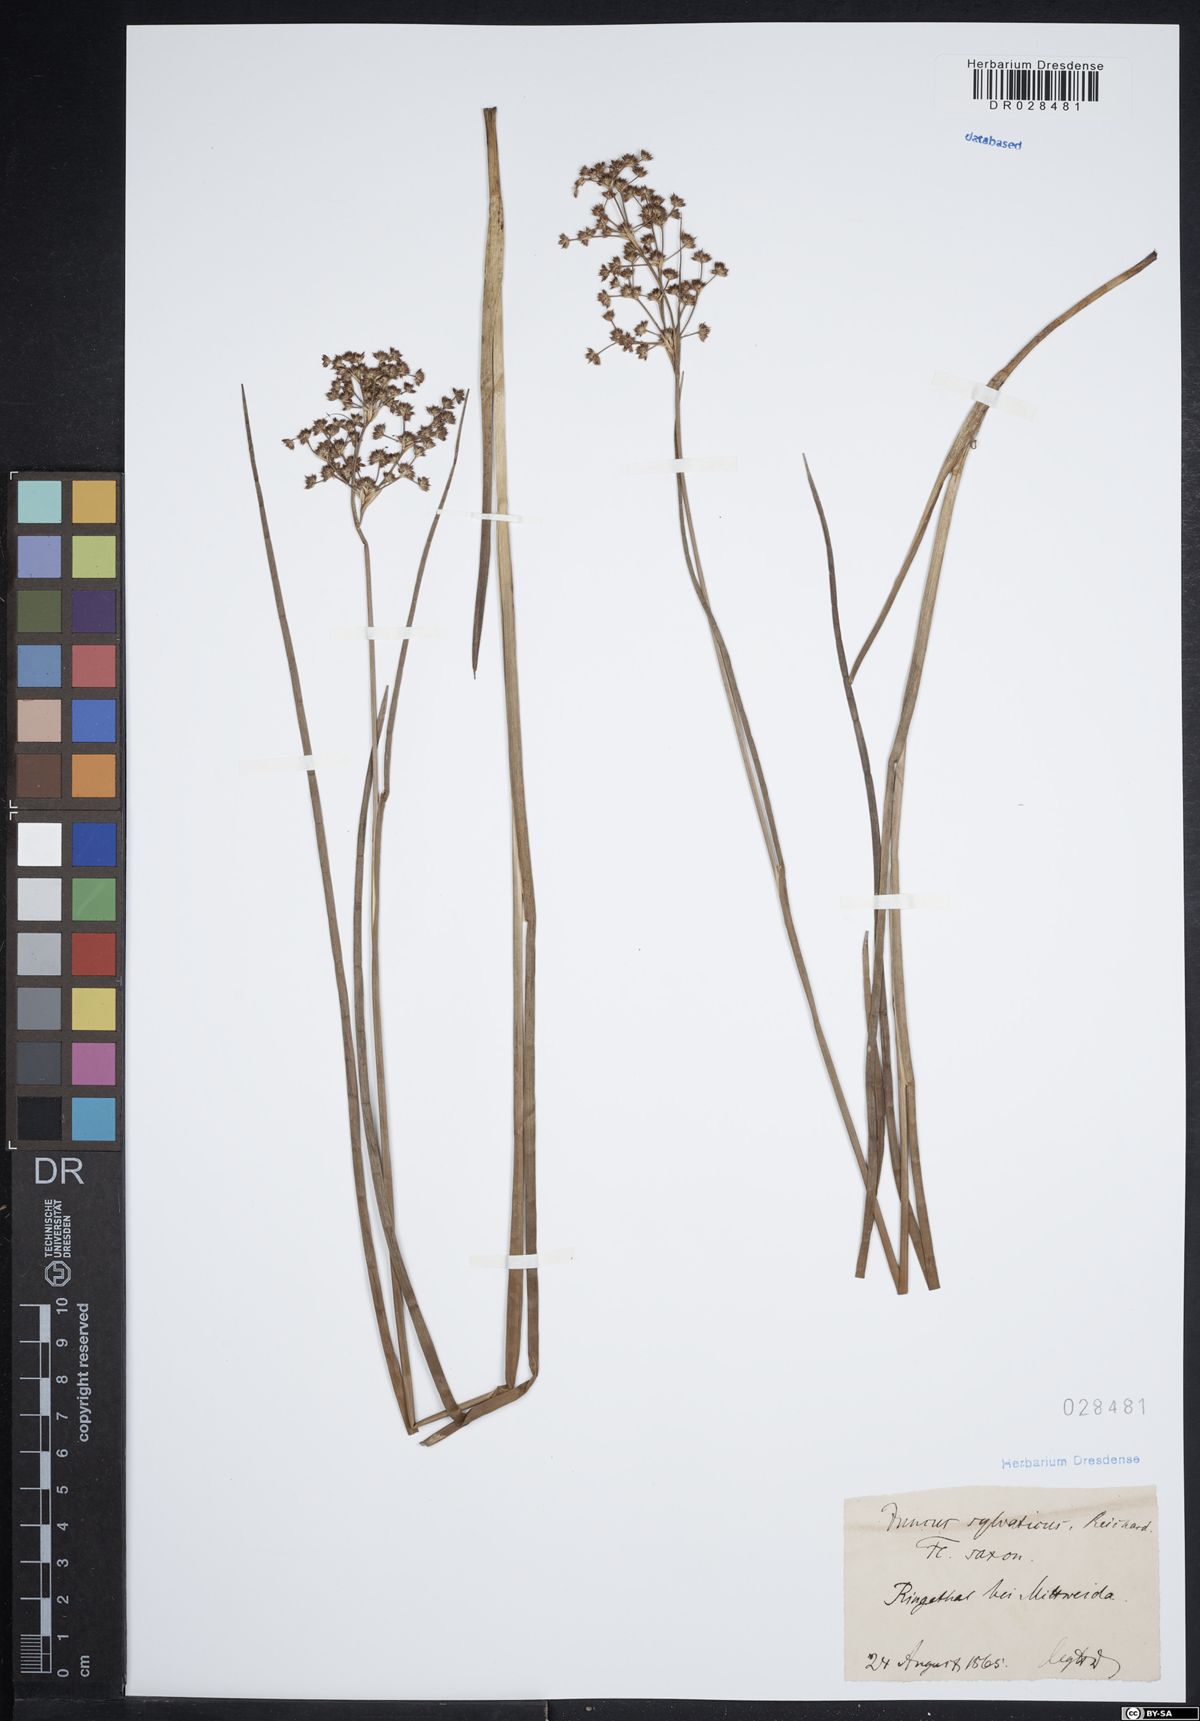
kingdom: Plantae
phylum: Tracheophyta
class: Liliopsida
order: Poales
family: Juncaceae
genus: Juncus
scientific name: Juncus acutiflorus
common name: Sharp-flowered rush
